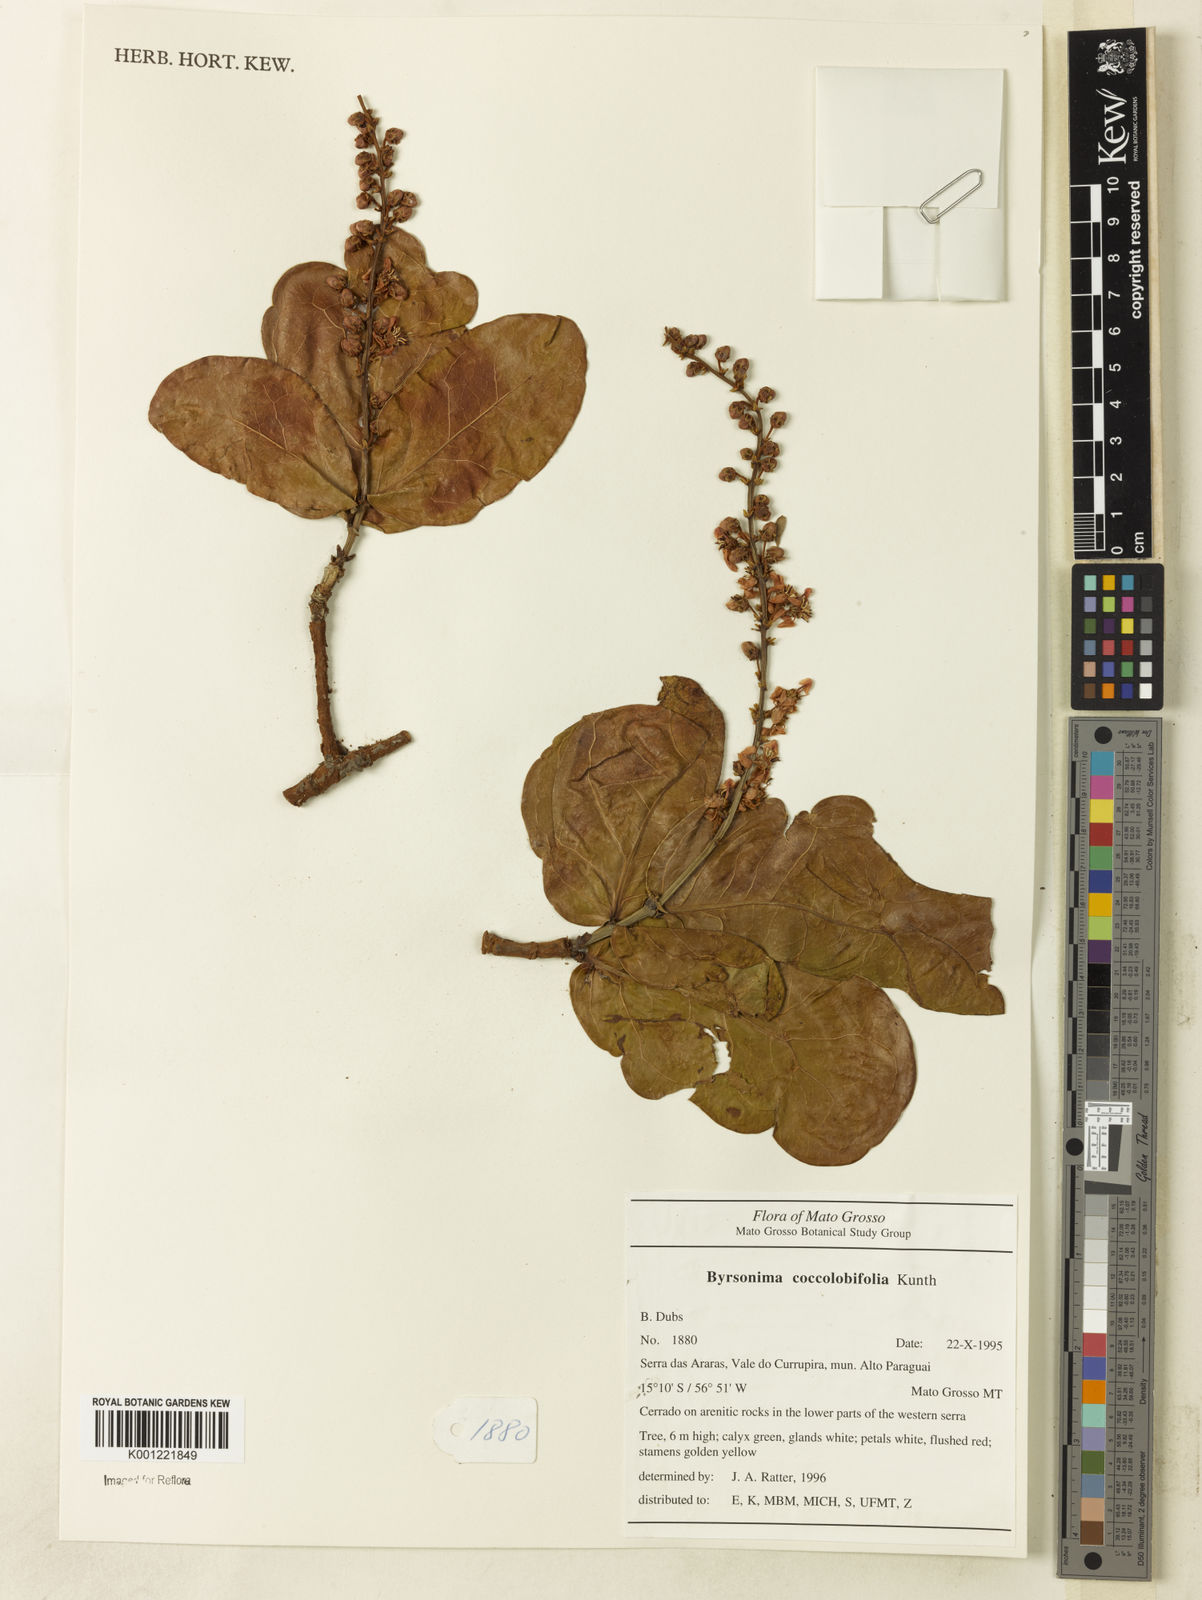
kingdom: Plantae
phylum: Tracheophyta
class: Magnoliopsida
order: Malpighiales
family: Malpighiaceae
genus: Byrsonima
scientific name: Byrsonima coccolobifolia
